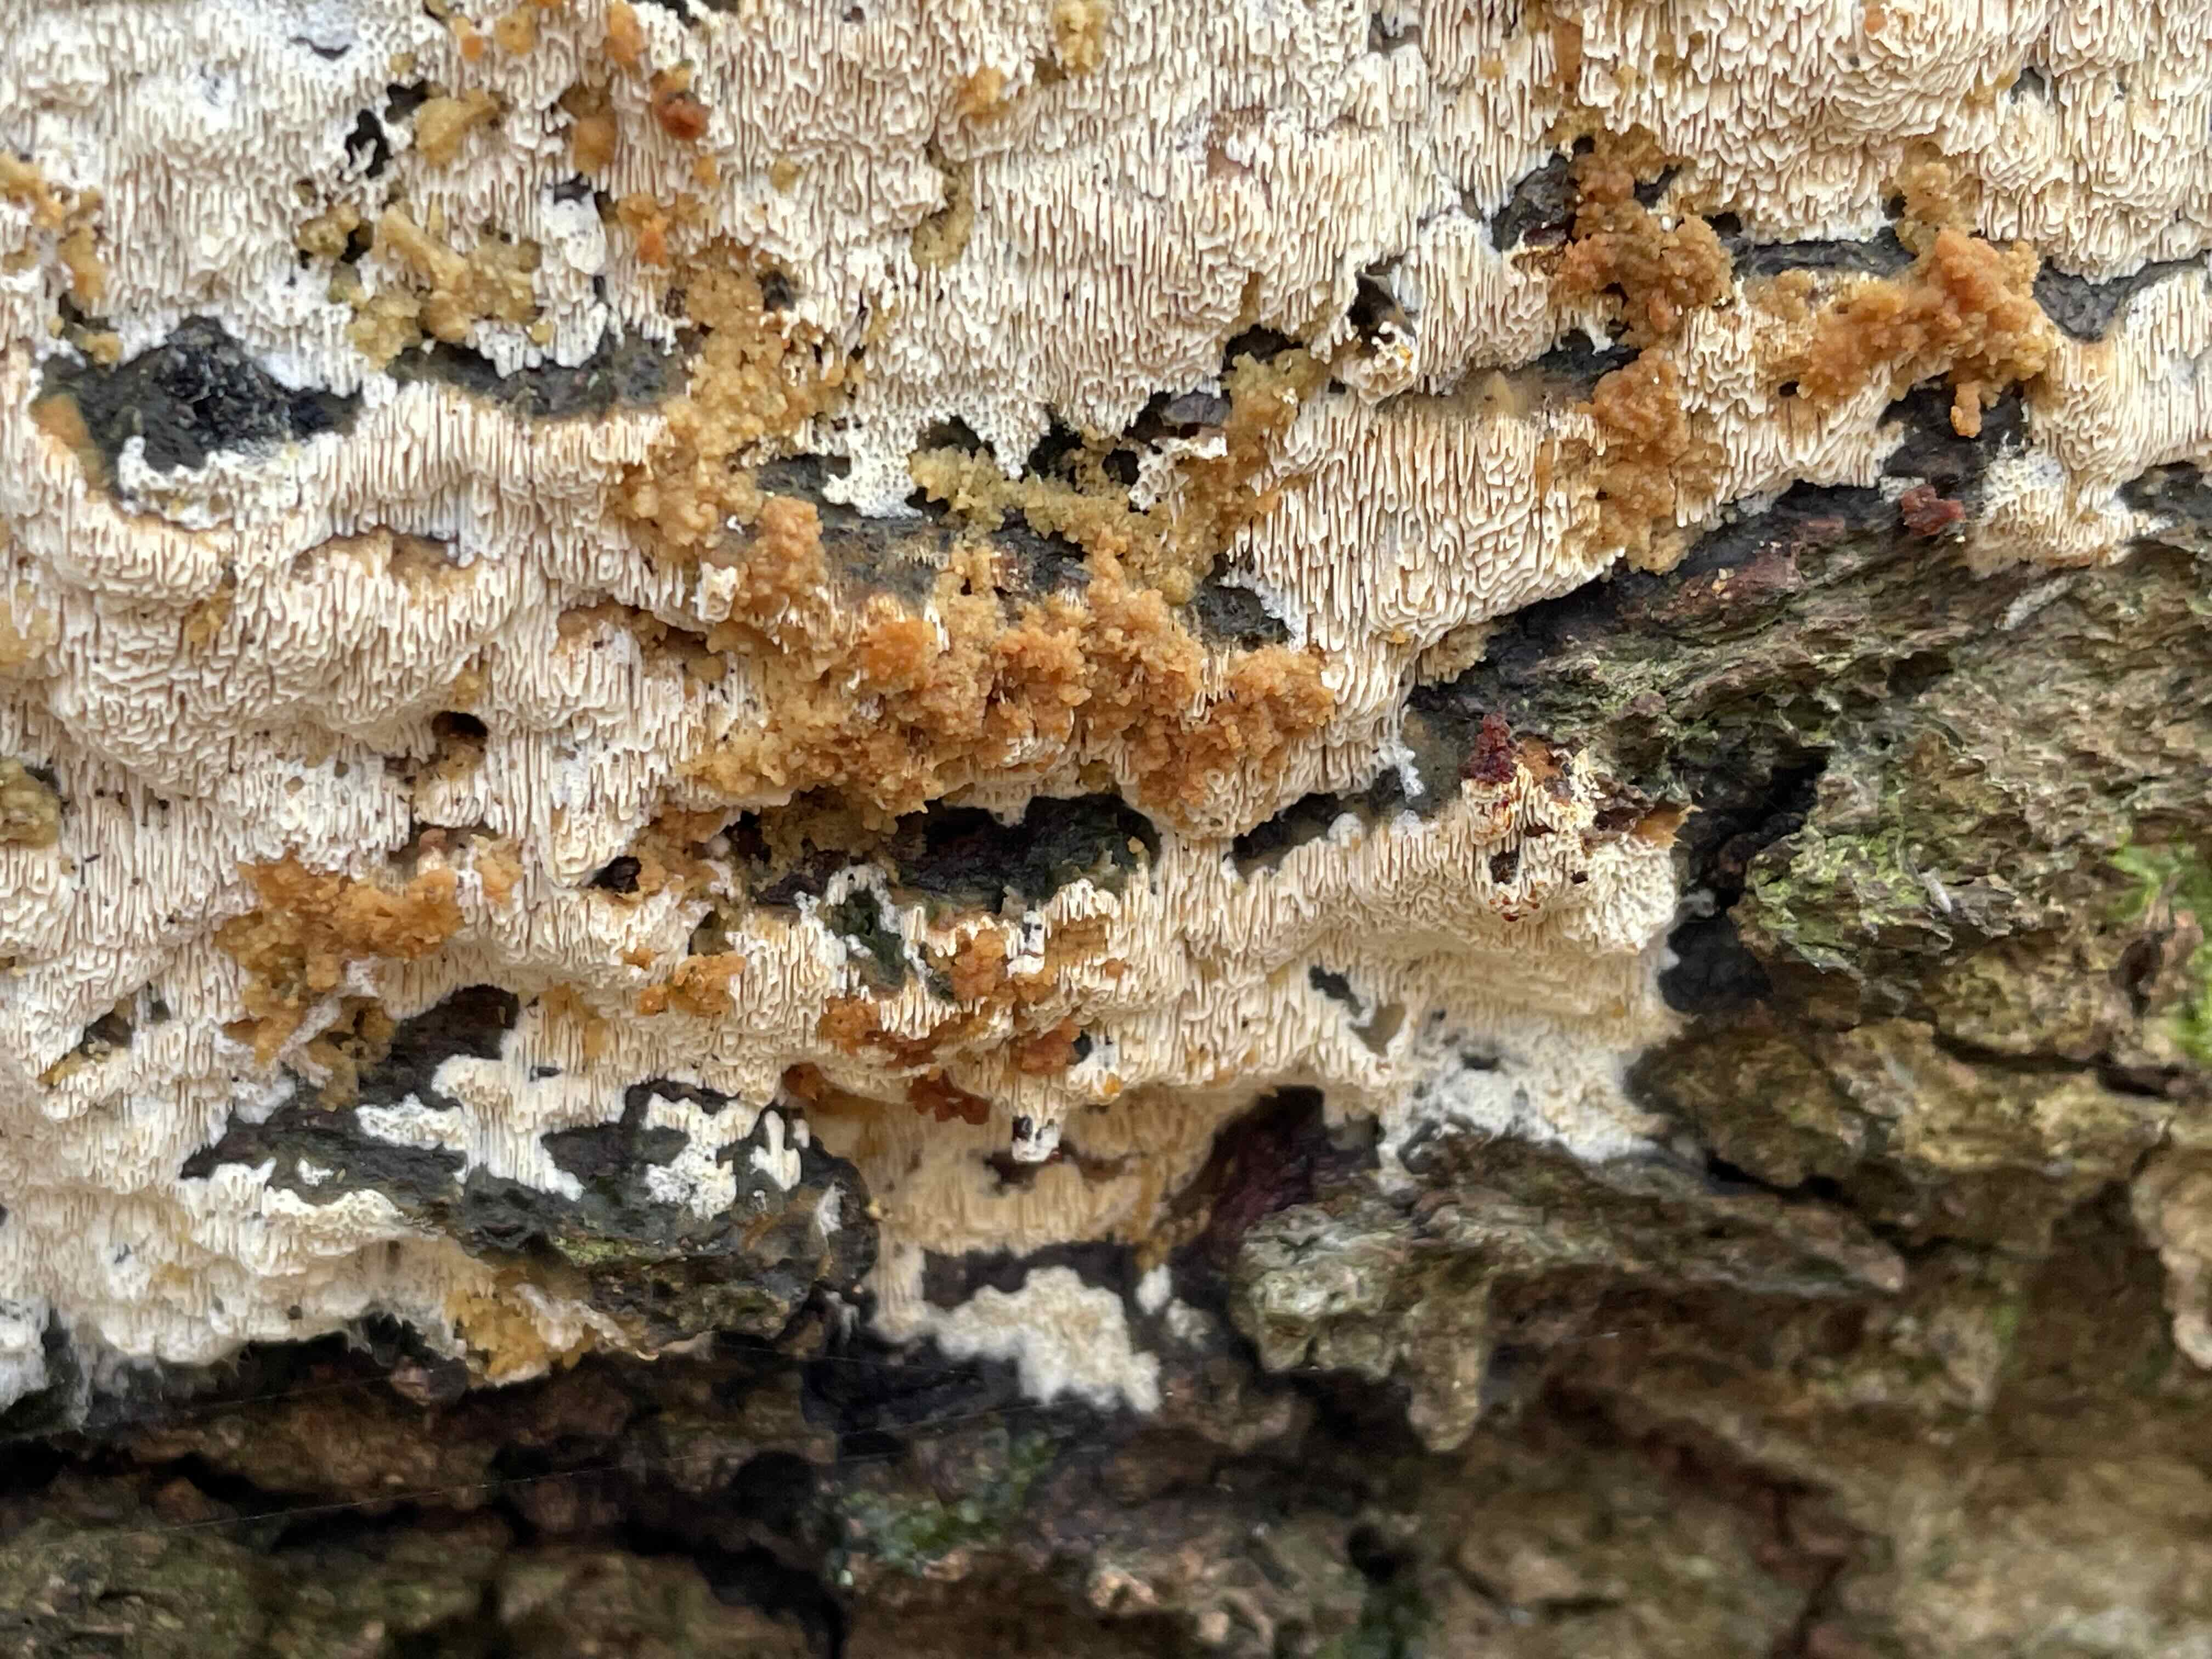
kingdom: Fungi
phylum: Basidiomycota
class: Agaricomycetes
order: Polyporales
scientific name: Polyporales
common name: poresvampordenen
